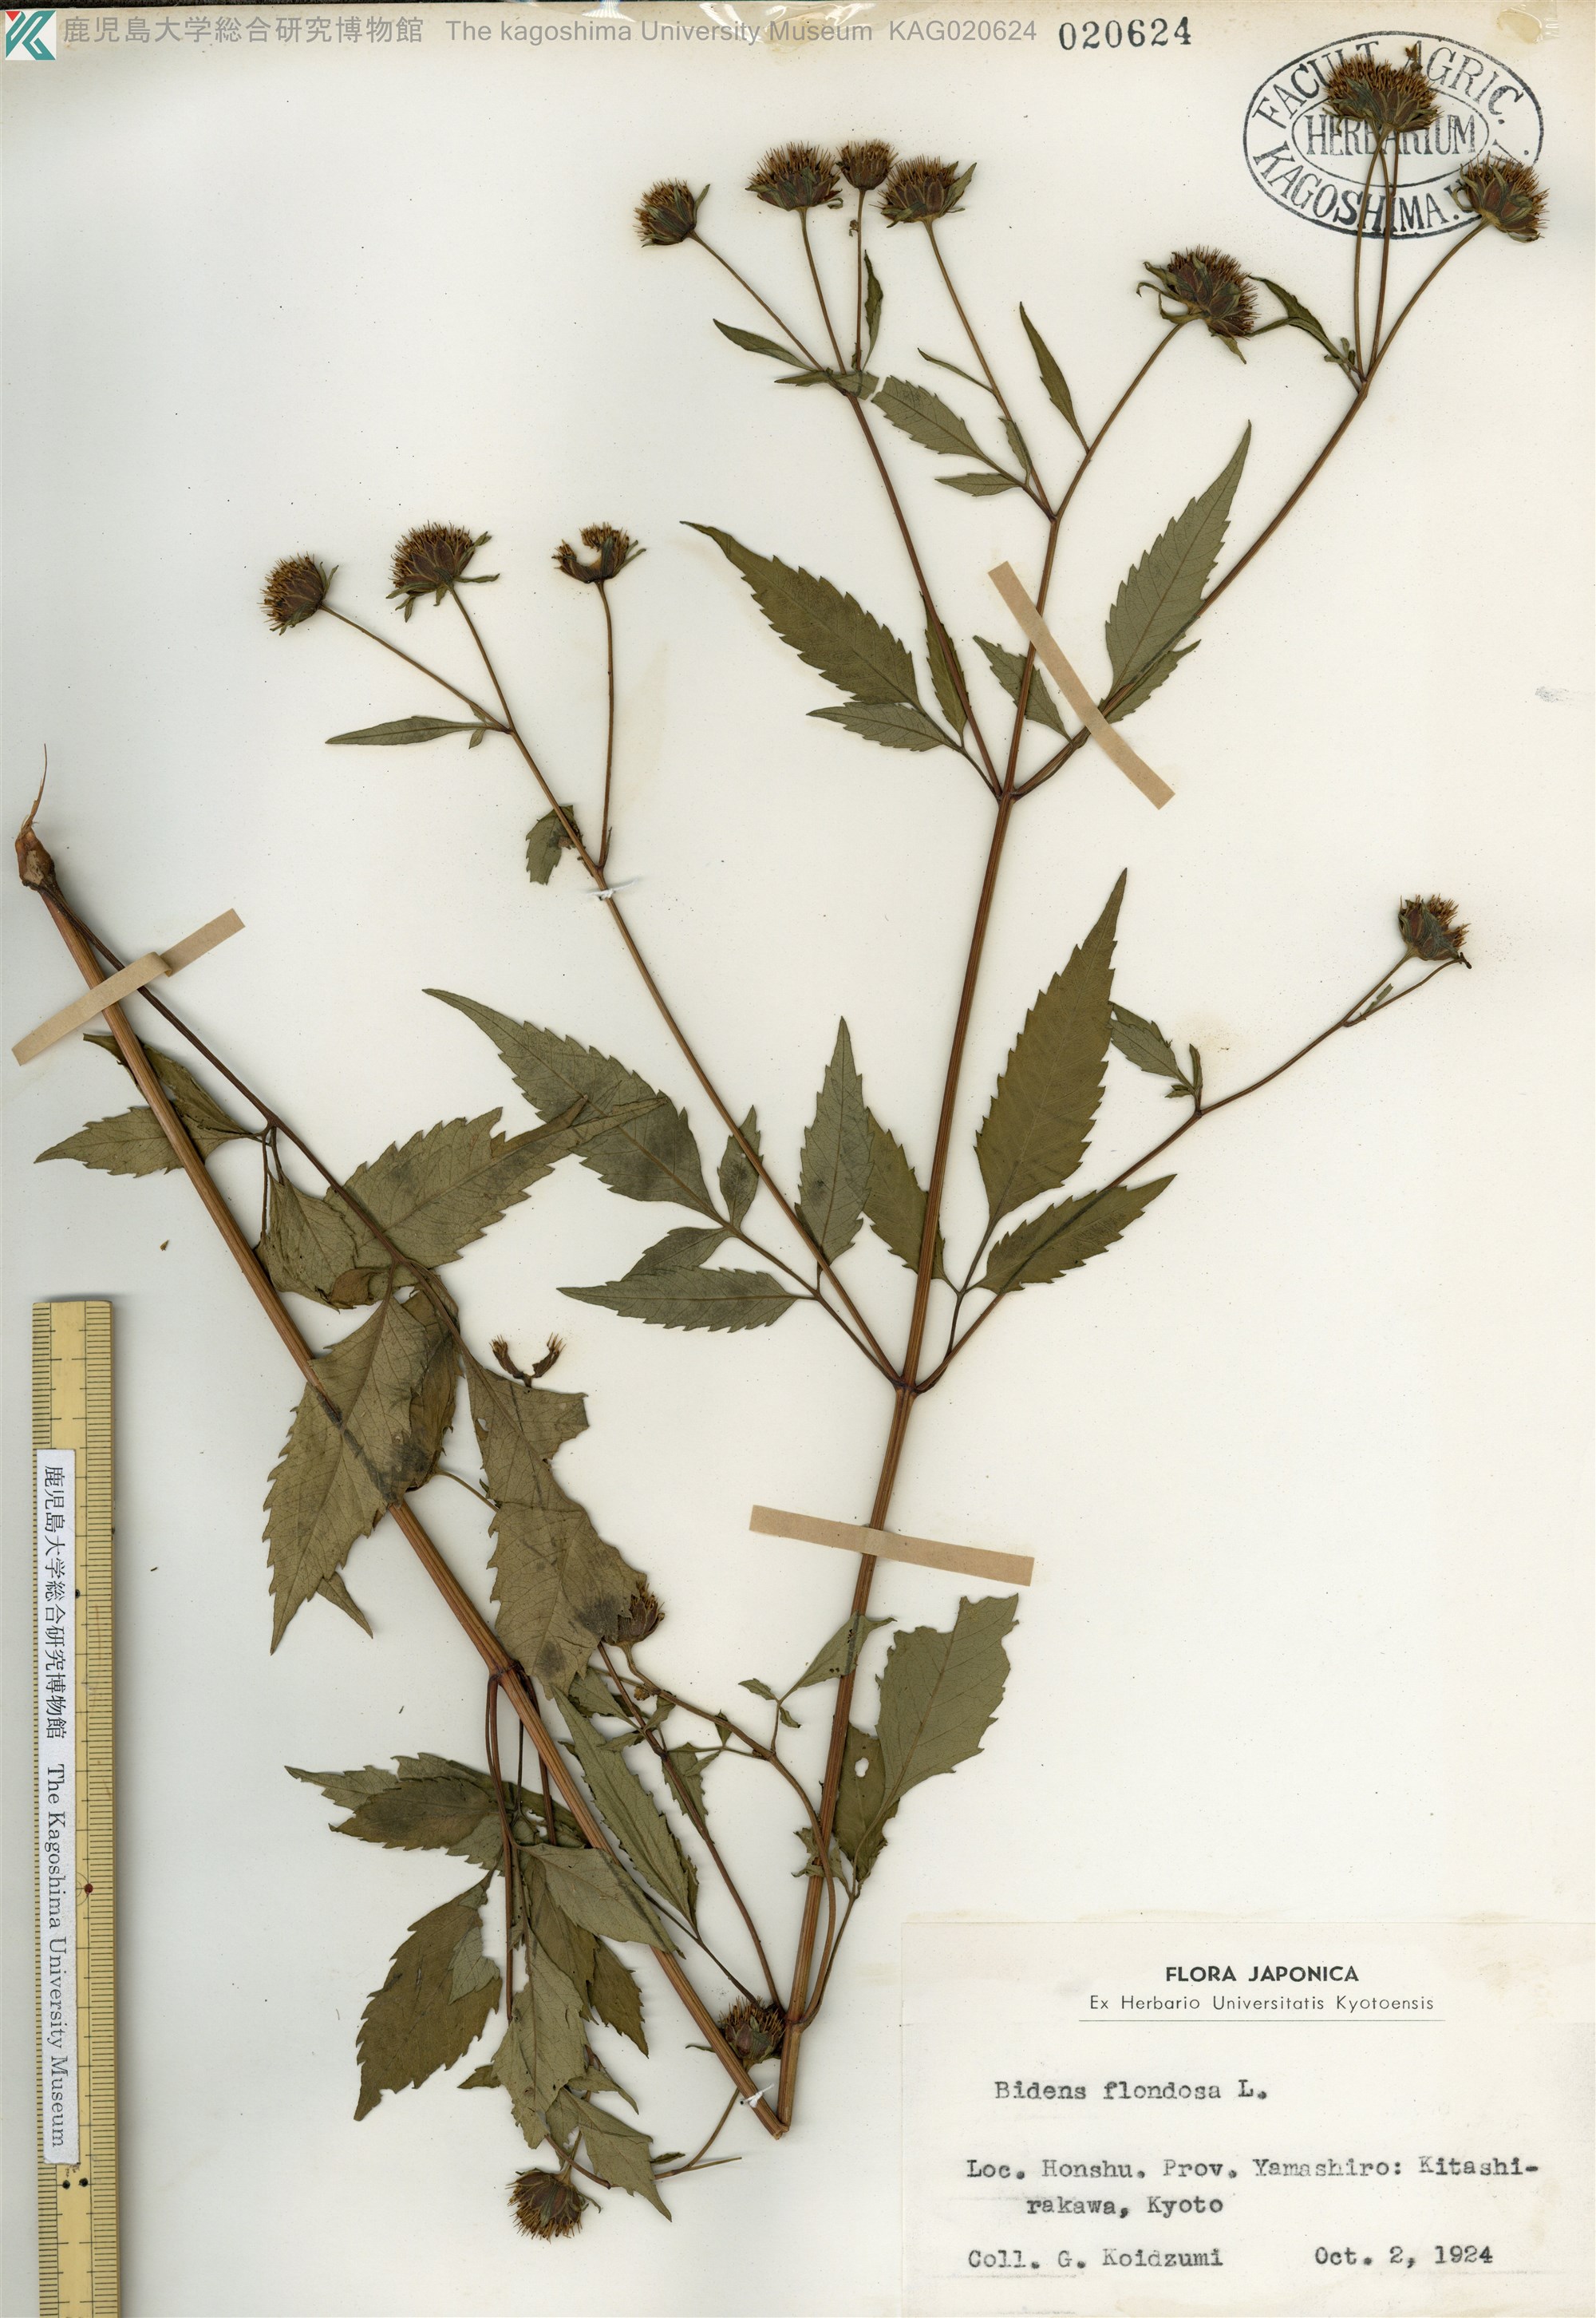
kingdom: Plantae
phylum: Tracheophyta
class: Magnoliopsida
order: Asterales
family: Asteraceae
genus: Bidens
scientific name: Bidens frondosa
